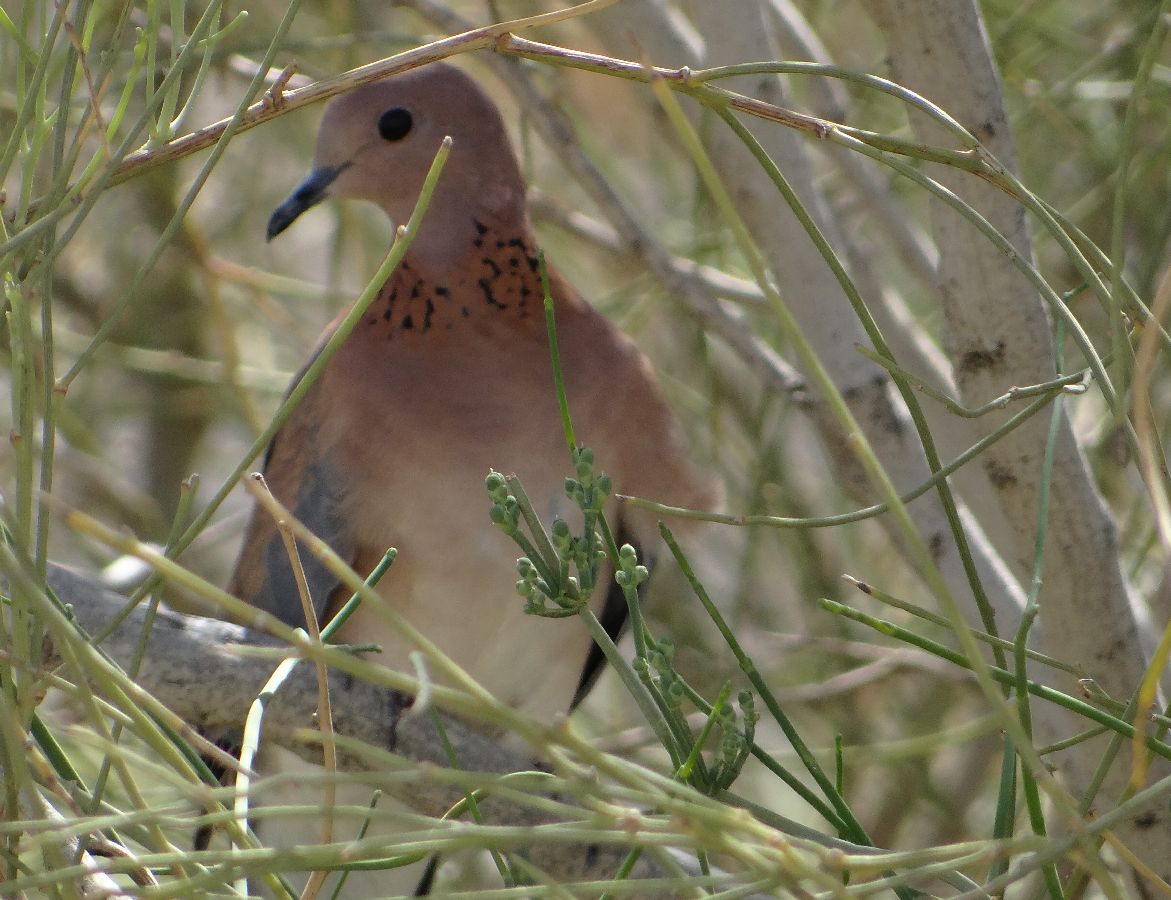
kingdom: Animalia
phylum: Chordata
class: Aves
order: Columbiformes
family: Columbidae
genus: Spilopelia
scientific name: Spilopelia senegalensis
